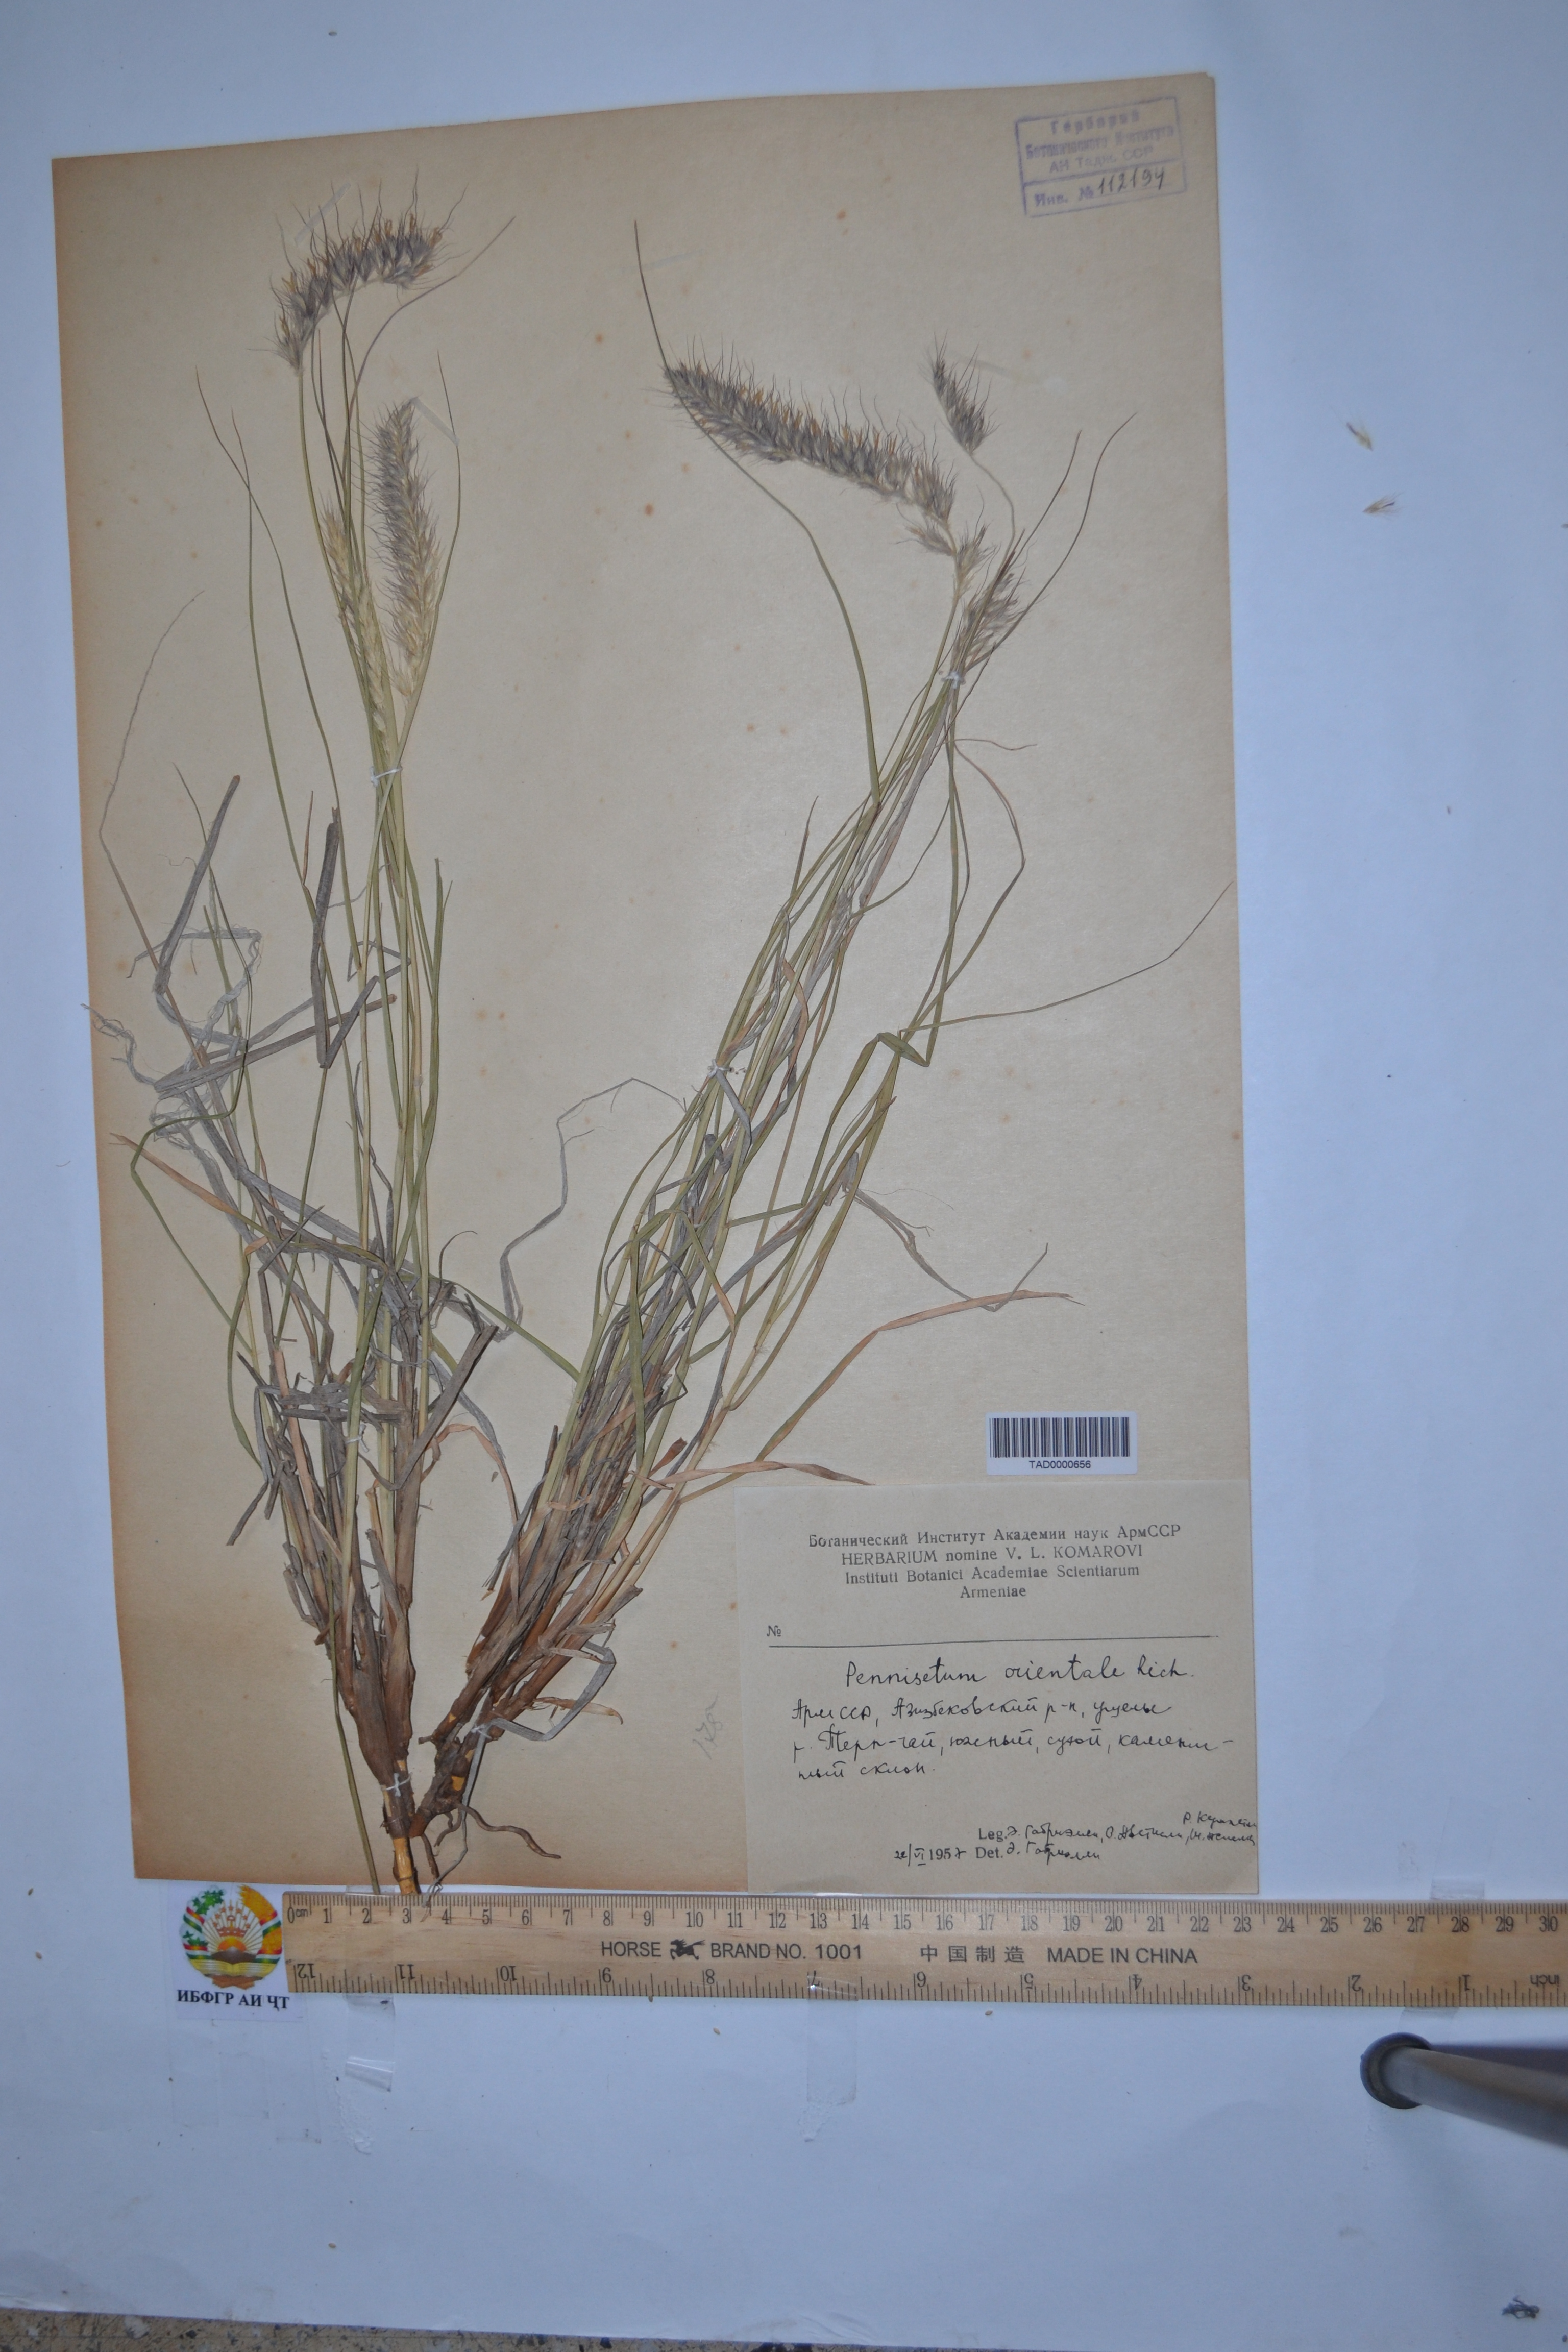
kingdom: Plantae
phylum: Tracheophyta
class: Liliopsida
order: Poales
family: Poaceae
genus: Cenchrus
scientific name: Cenchrus orientalis
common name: Oriental fountain grass
